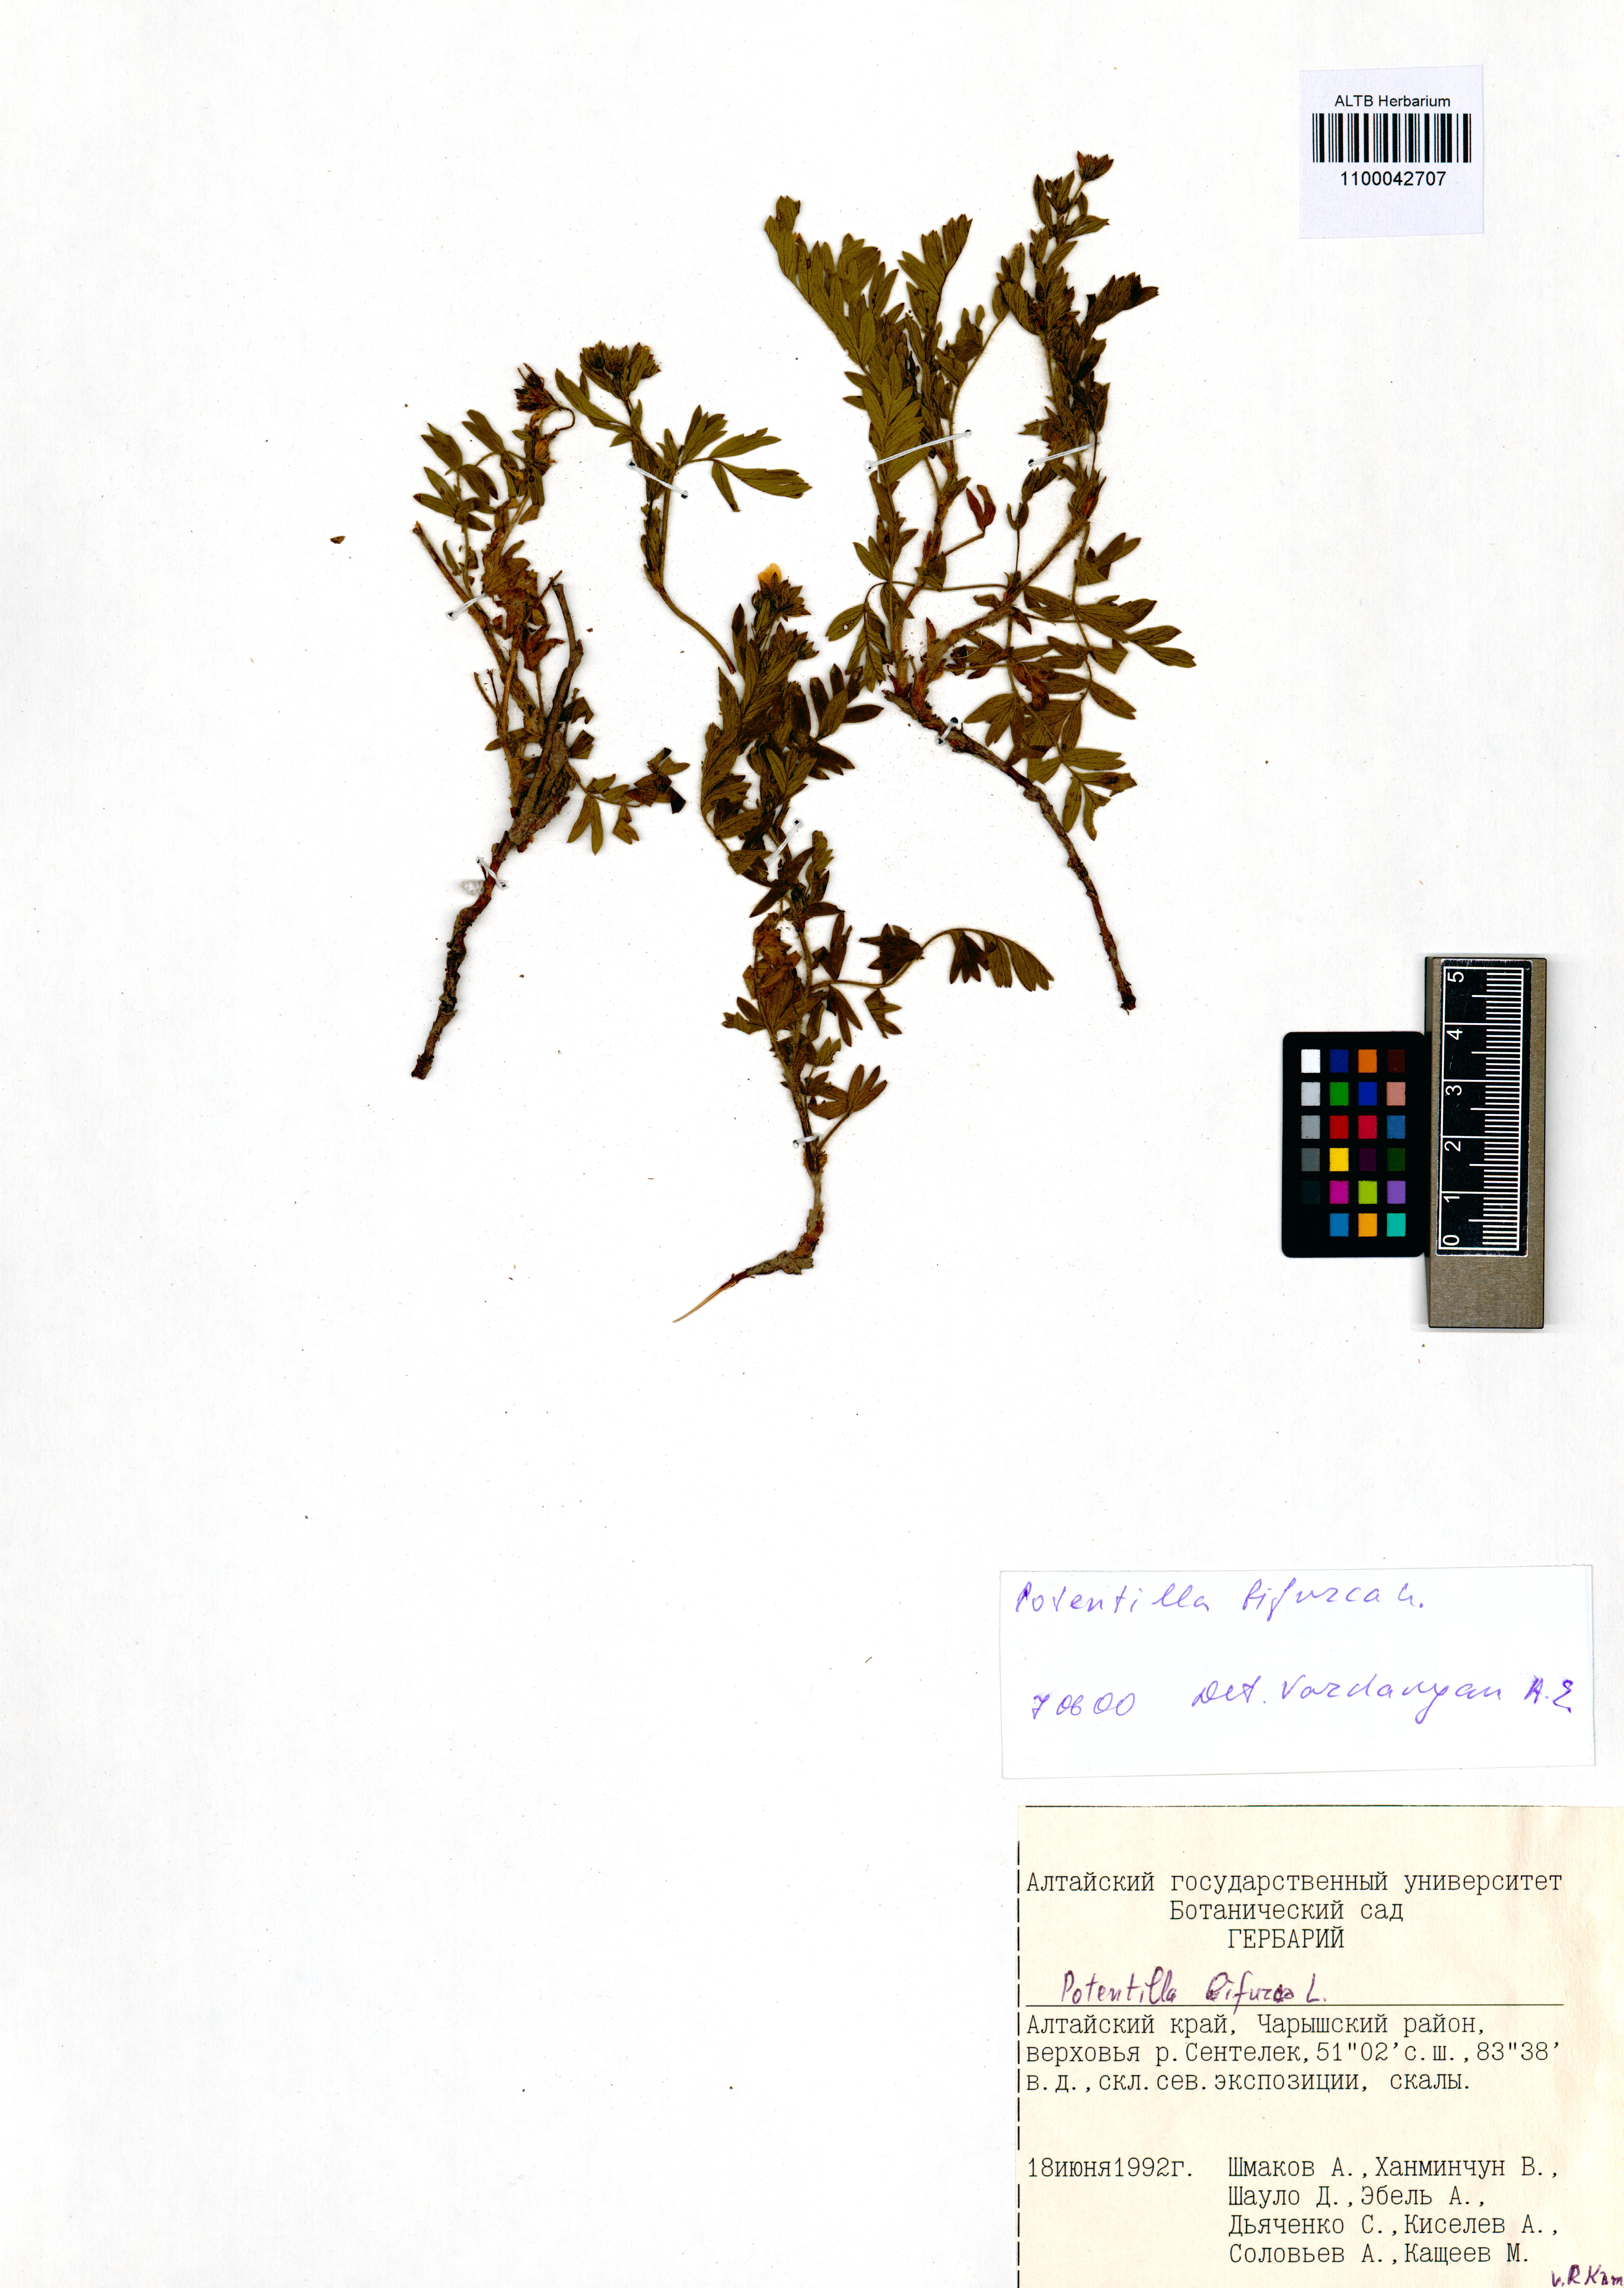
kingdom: Plantae
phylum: Tracheophyta
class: Magnoliopsida
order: Rosales
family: Rosaceae
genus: Sibbaldianthe
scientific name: Sibbaldianthe bifurca
